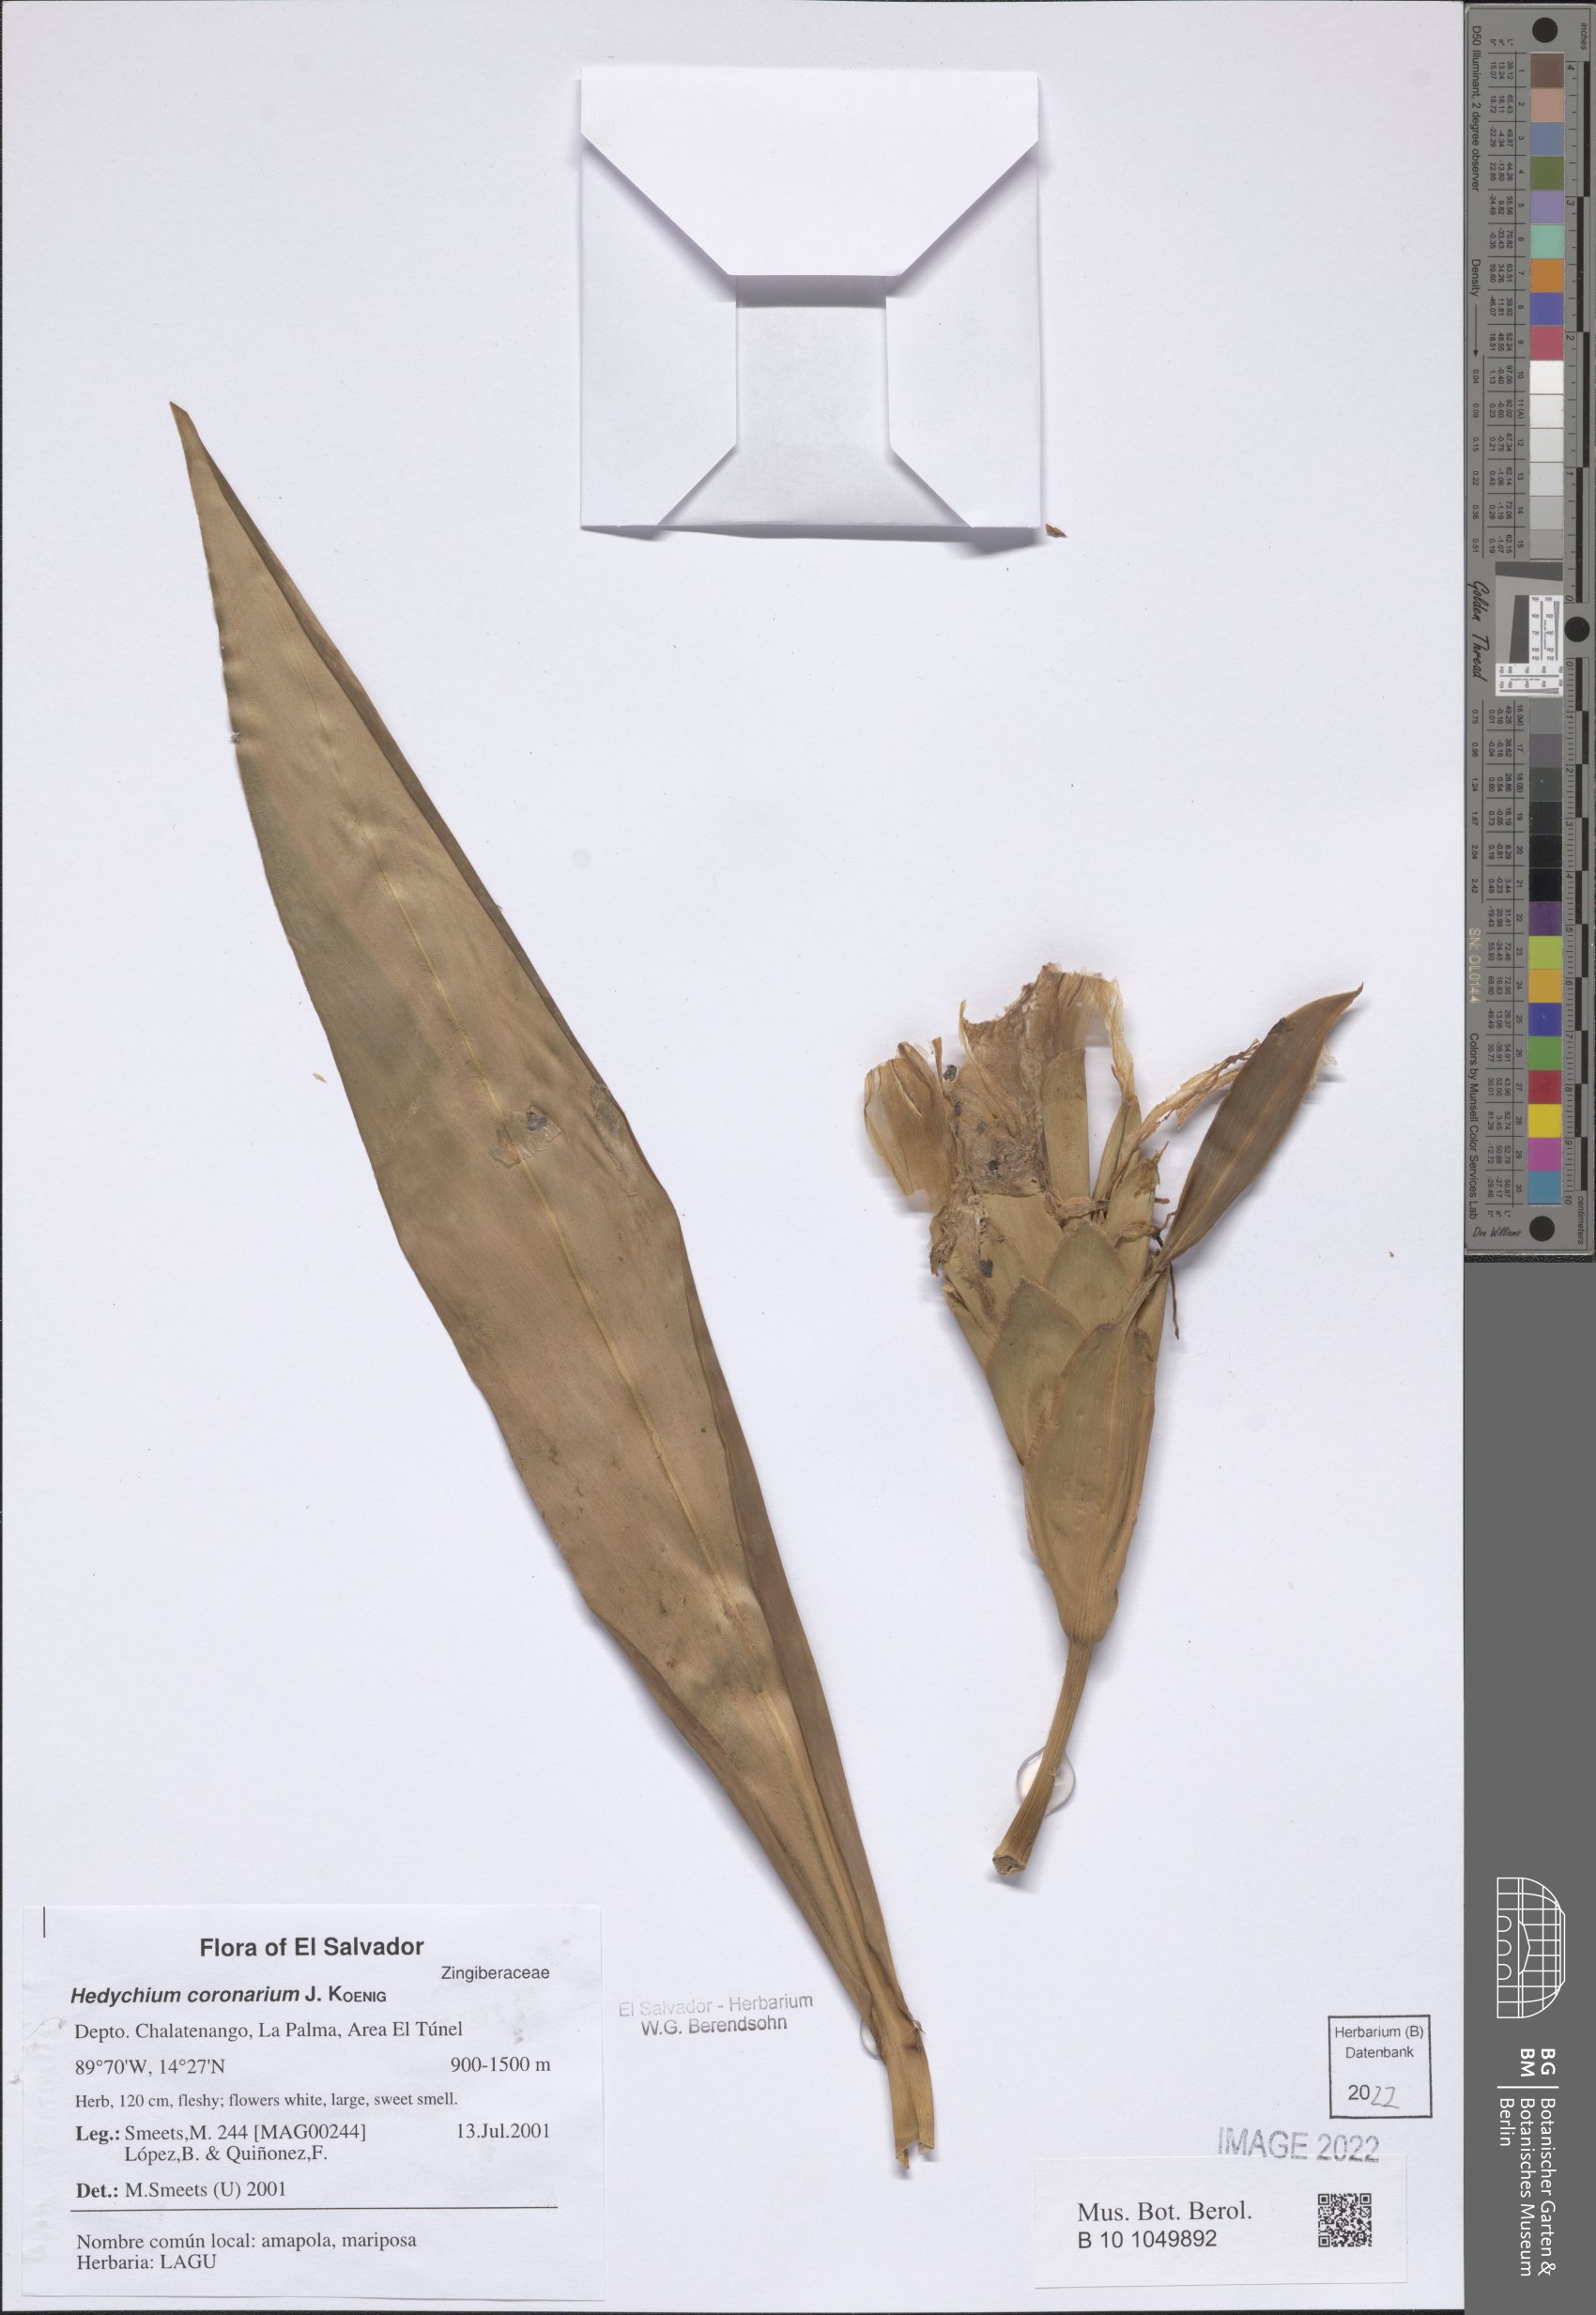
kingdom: Plantae
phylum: Tracheophyta
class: Liliopsida
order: Zingiberales
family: Zingiberaceae
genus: Hedychium
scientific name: Hedychium coronarium
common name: White garland-lily
